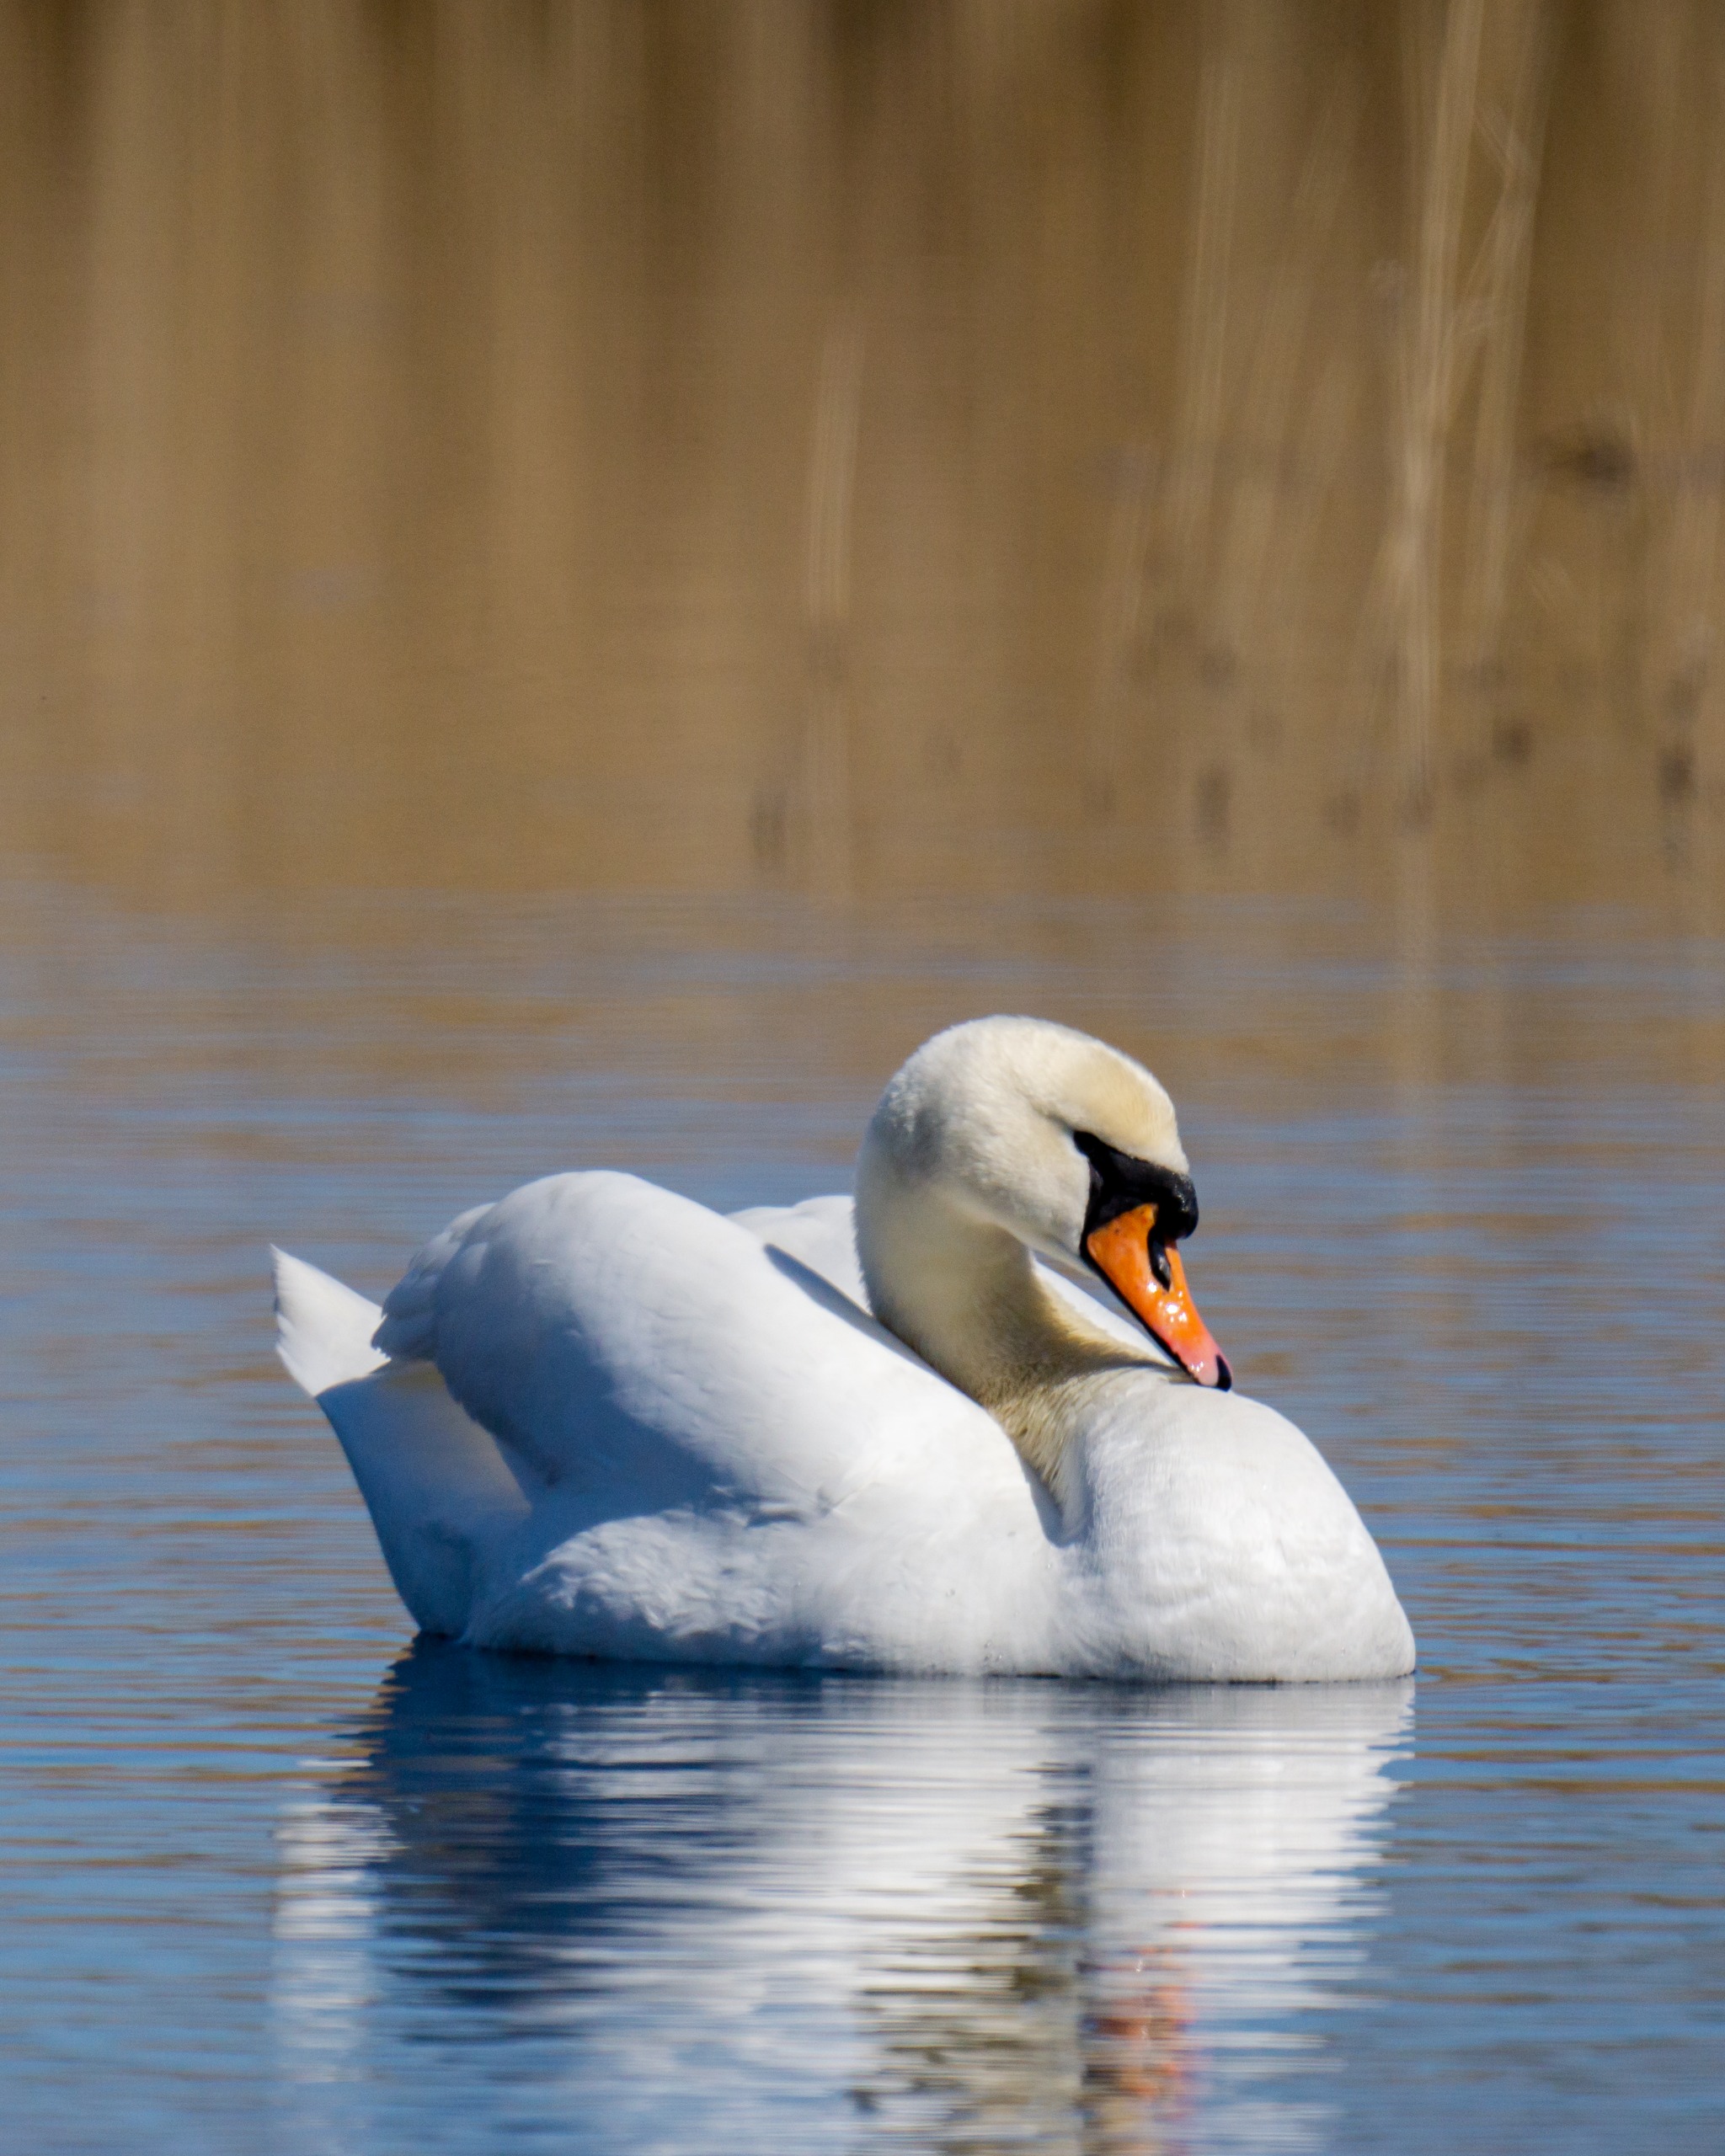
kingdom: Animalia
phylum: Chordata
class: Aves
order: Anseriformes
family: Anatidae
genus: Cygnus
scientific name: Cygnus olor
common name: Knopsvane
